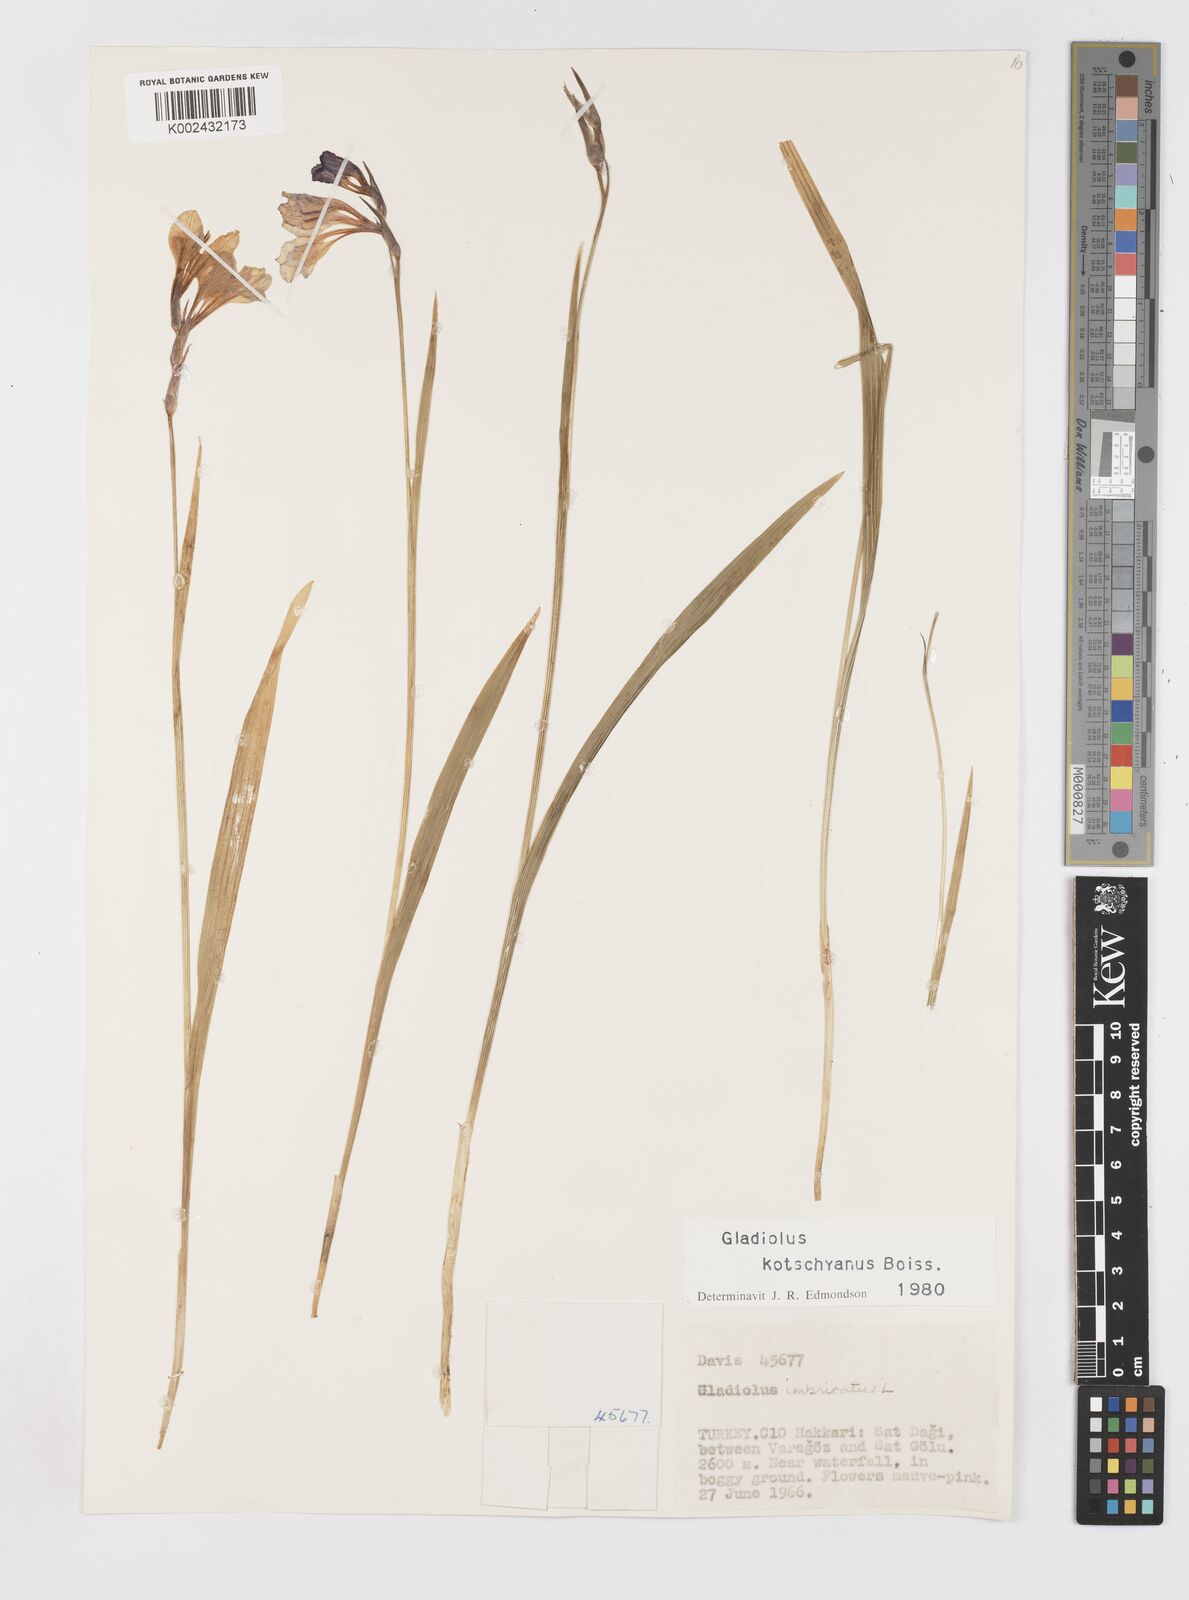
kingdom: Plantae
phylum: Tracheophyta
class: Liliopsida
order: Asparagales
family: Iridaceae
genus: Gladiolus
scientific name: Gladiolus imbricatus
